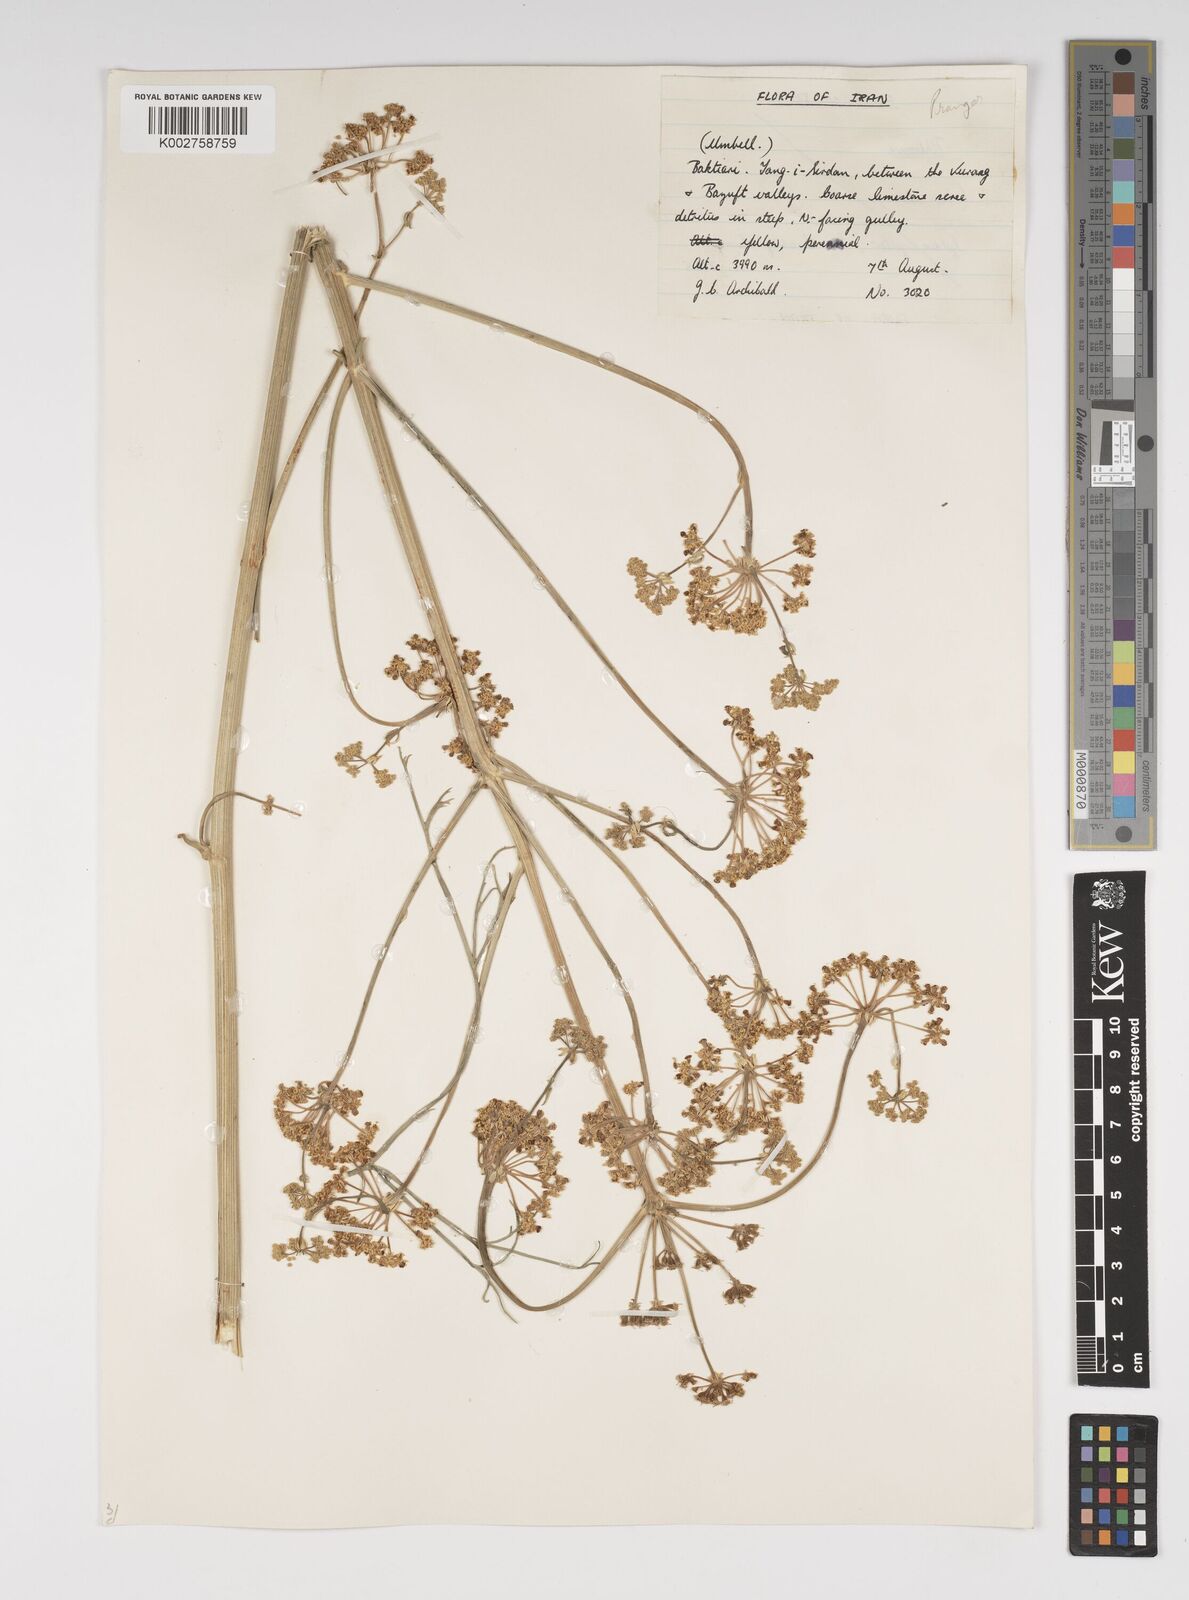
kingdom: Plantae
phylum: Tracheophyta
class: Magnoliopsida
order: Apiales
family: Apiaceae
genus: Cachrys
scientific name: Cachrys
